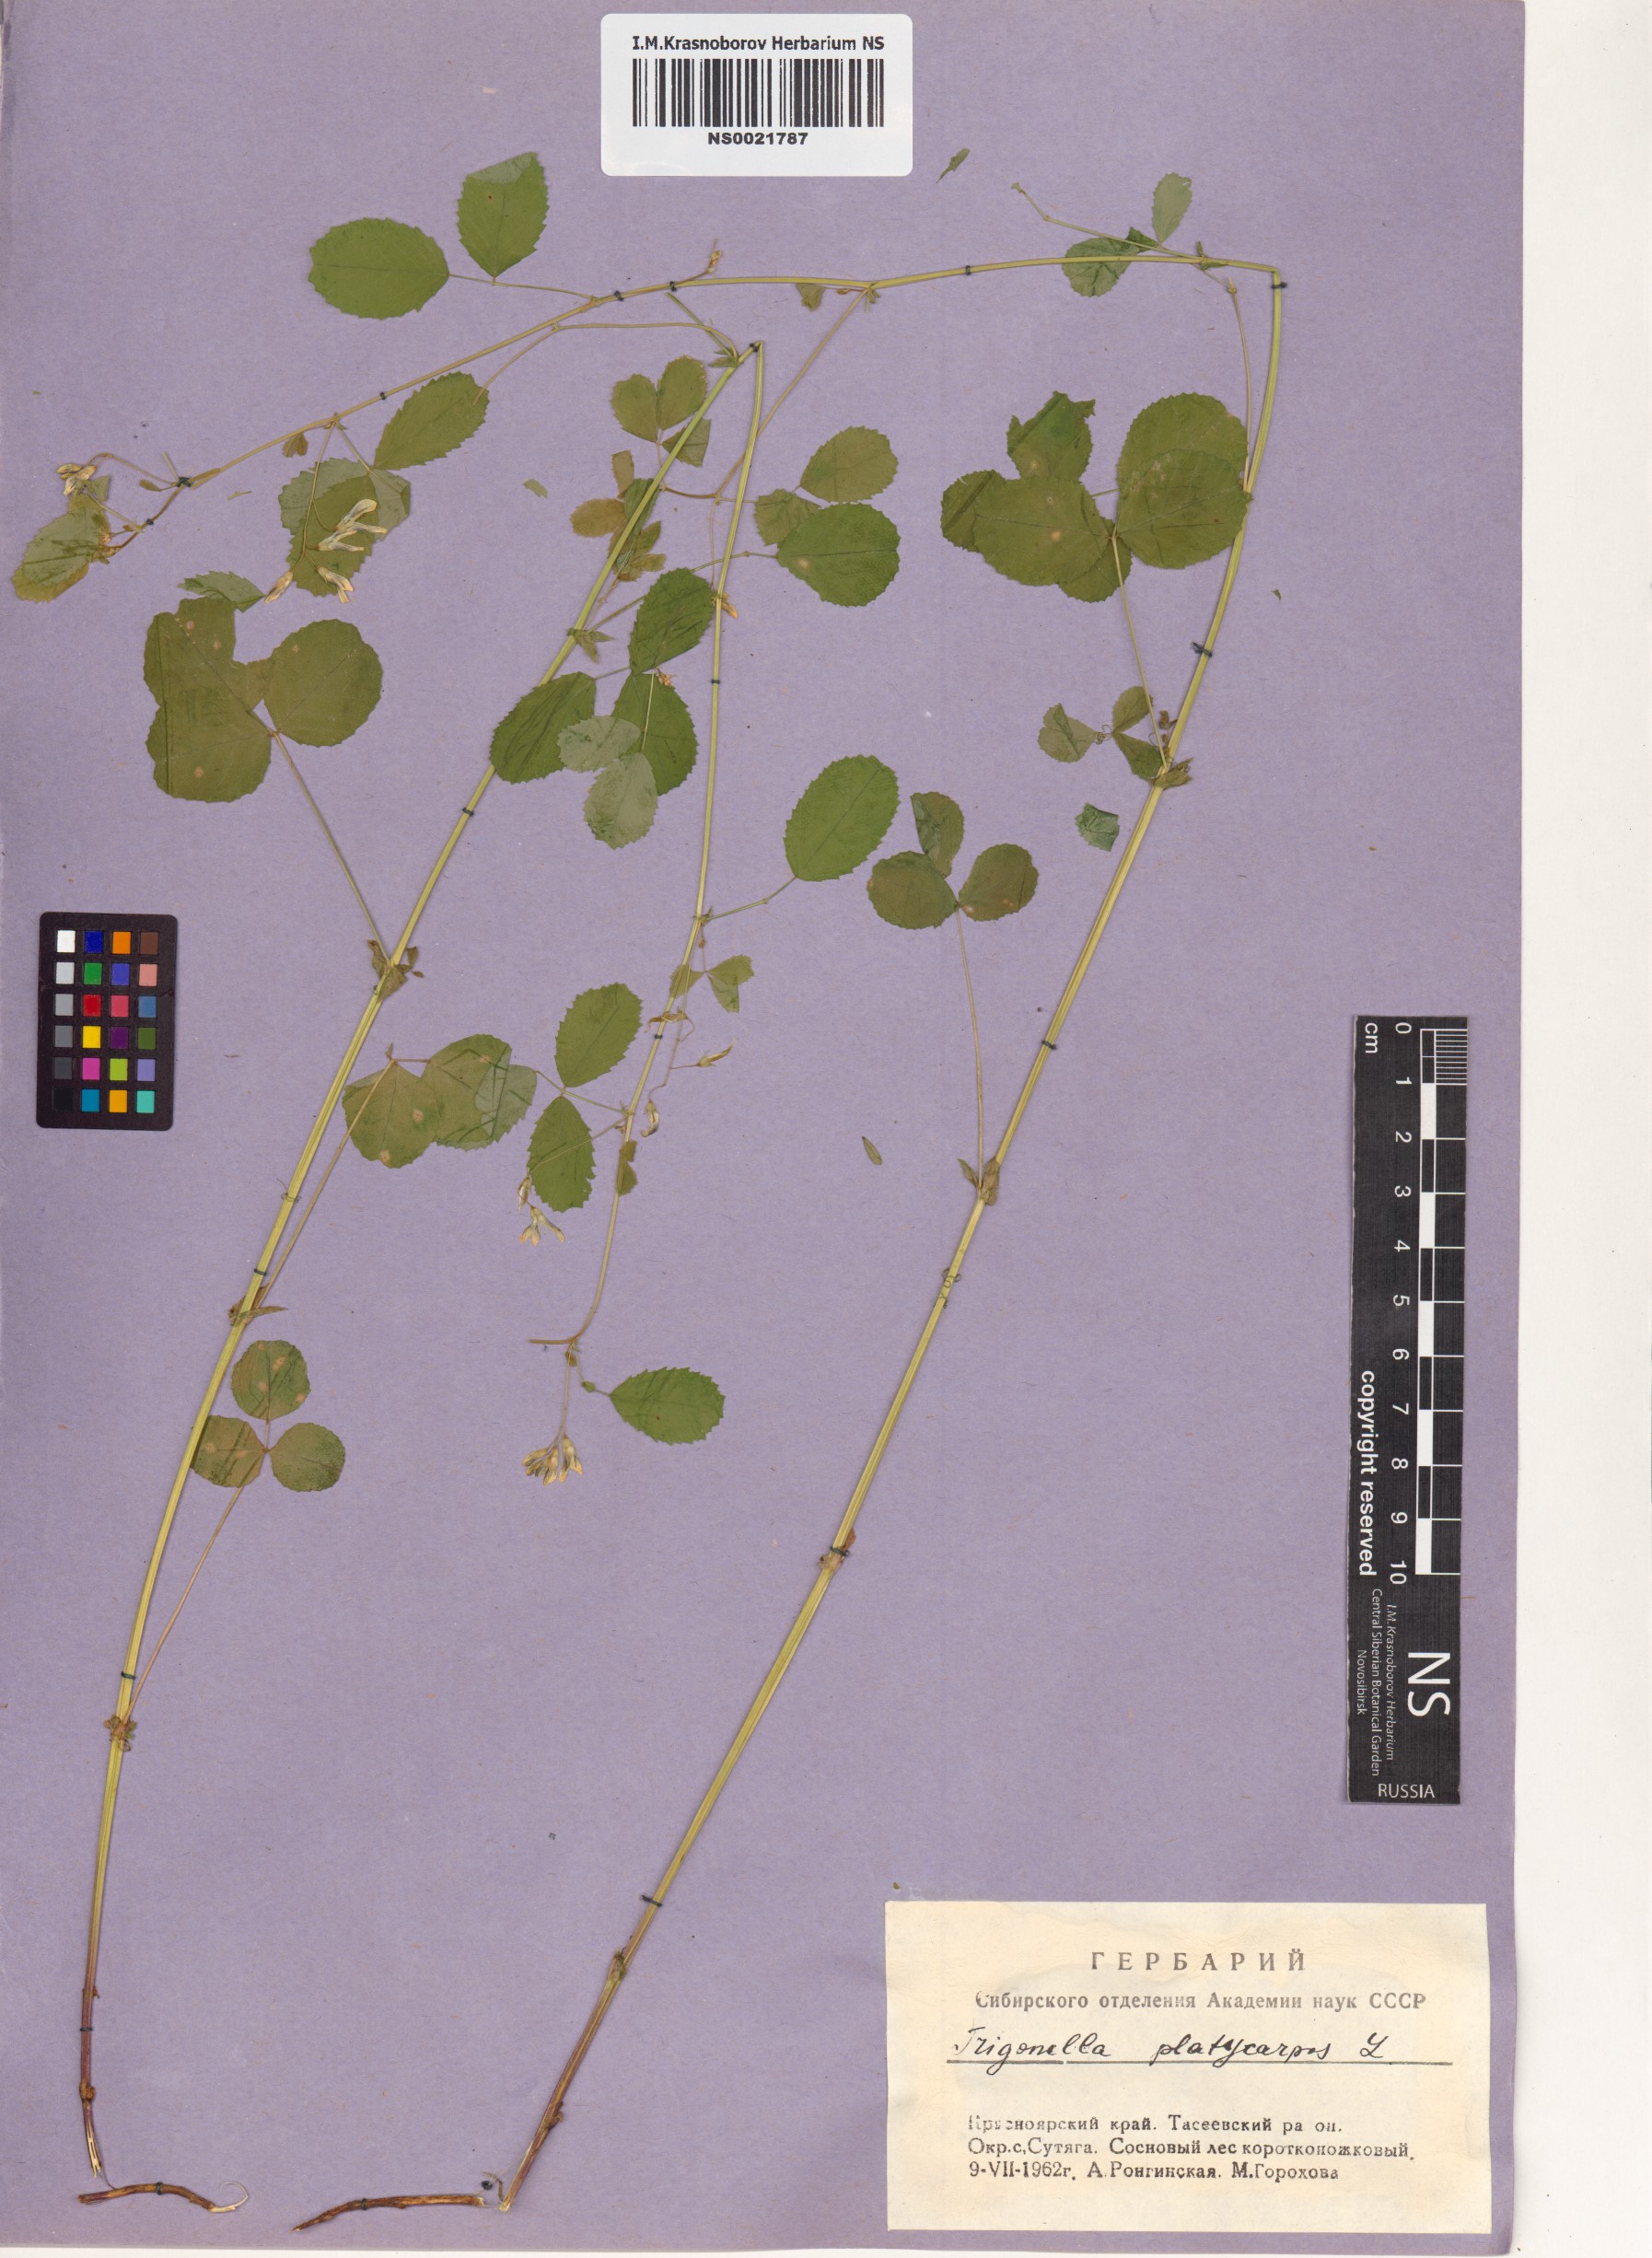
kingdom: Plantae
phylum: Tracheophyta
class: Magnoliopsida
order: Fabales
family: Fabaceae
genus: Medicago
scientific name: Medicago platycarpos
